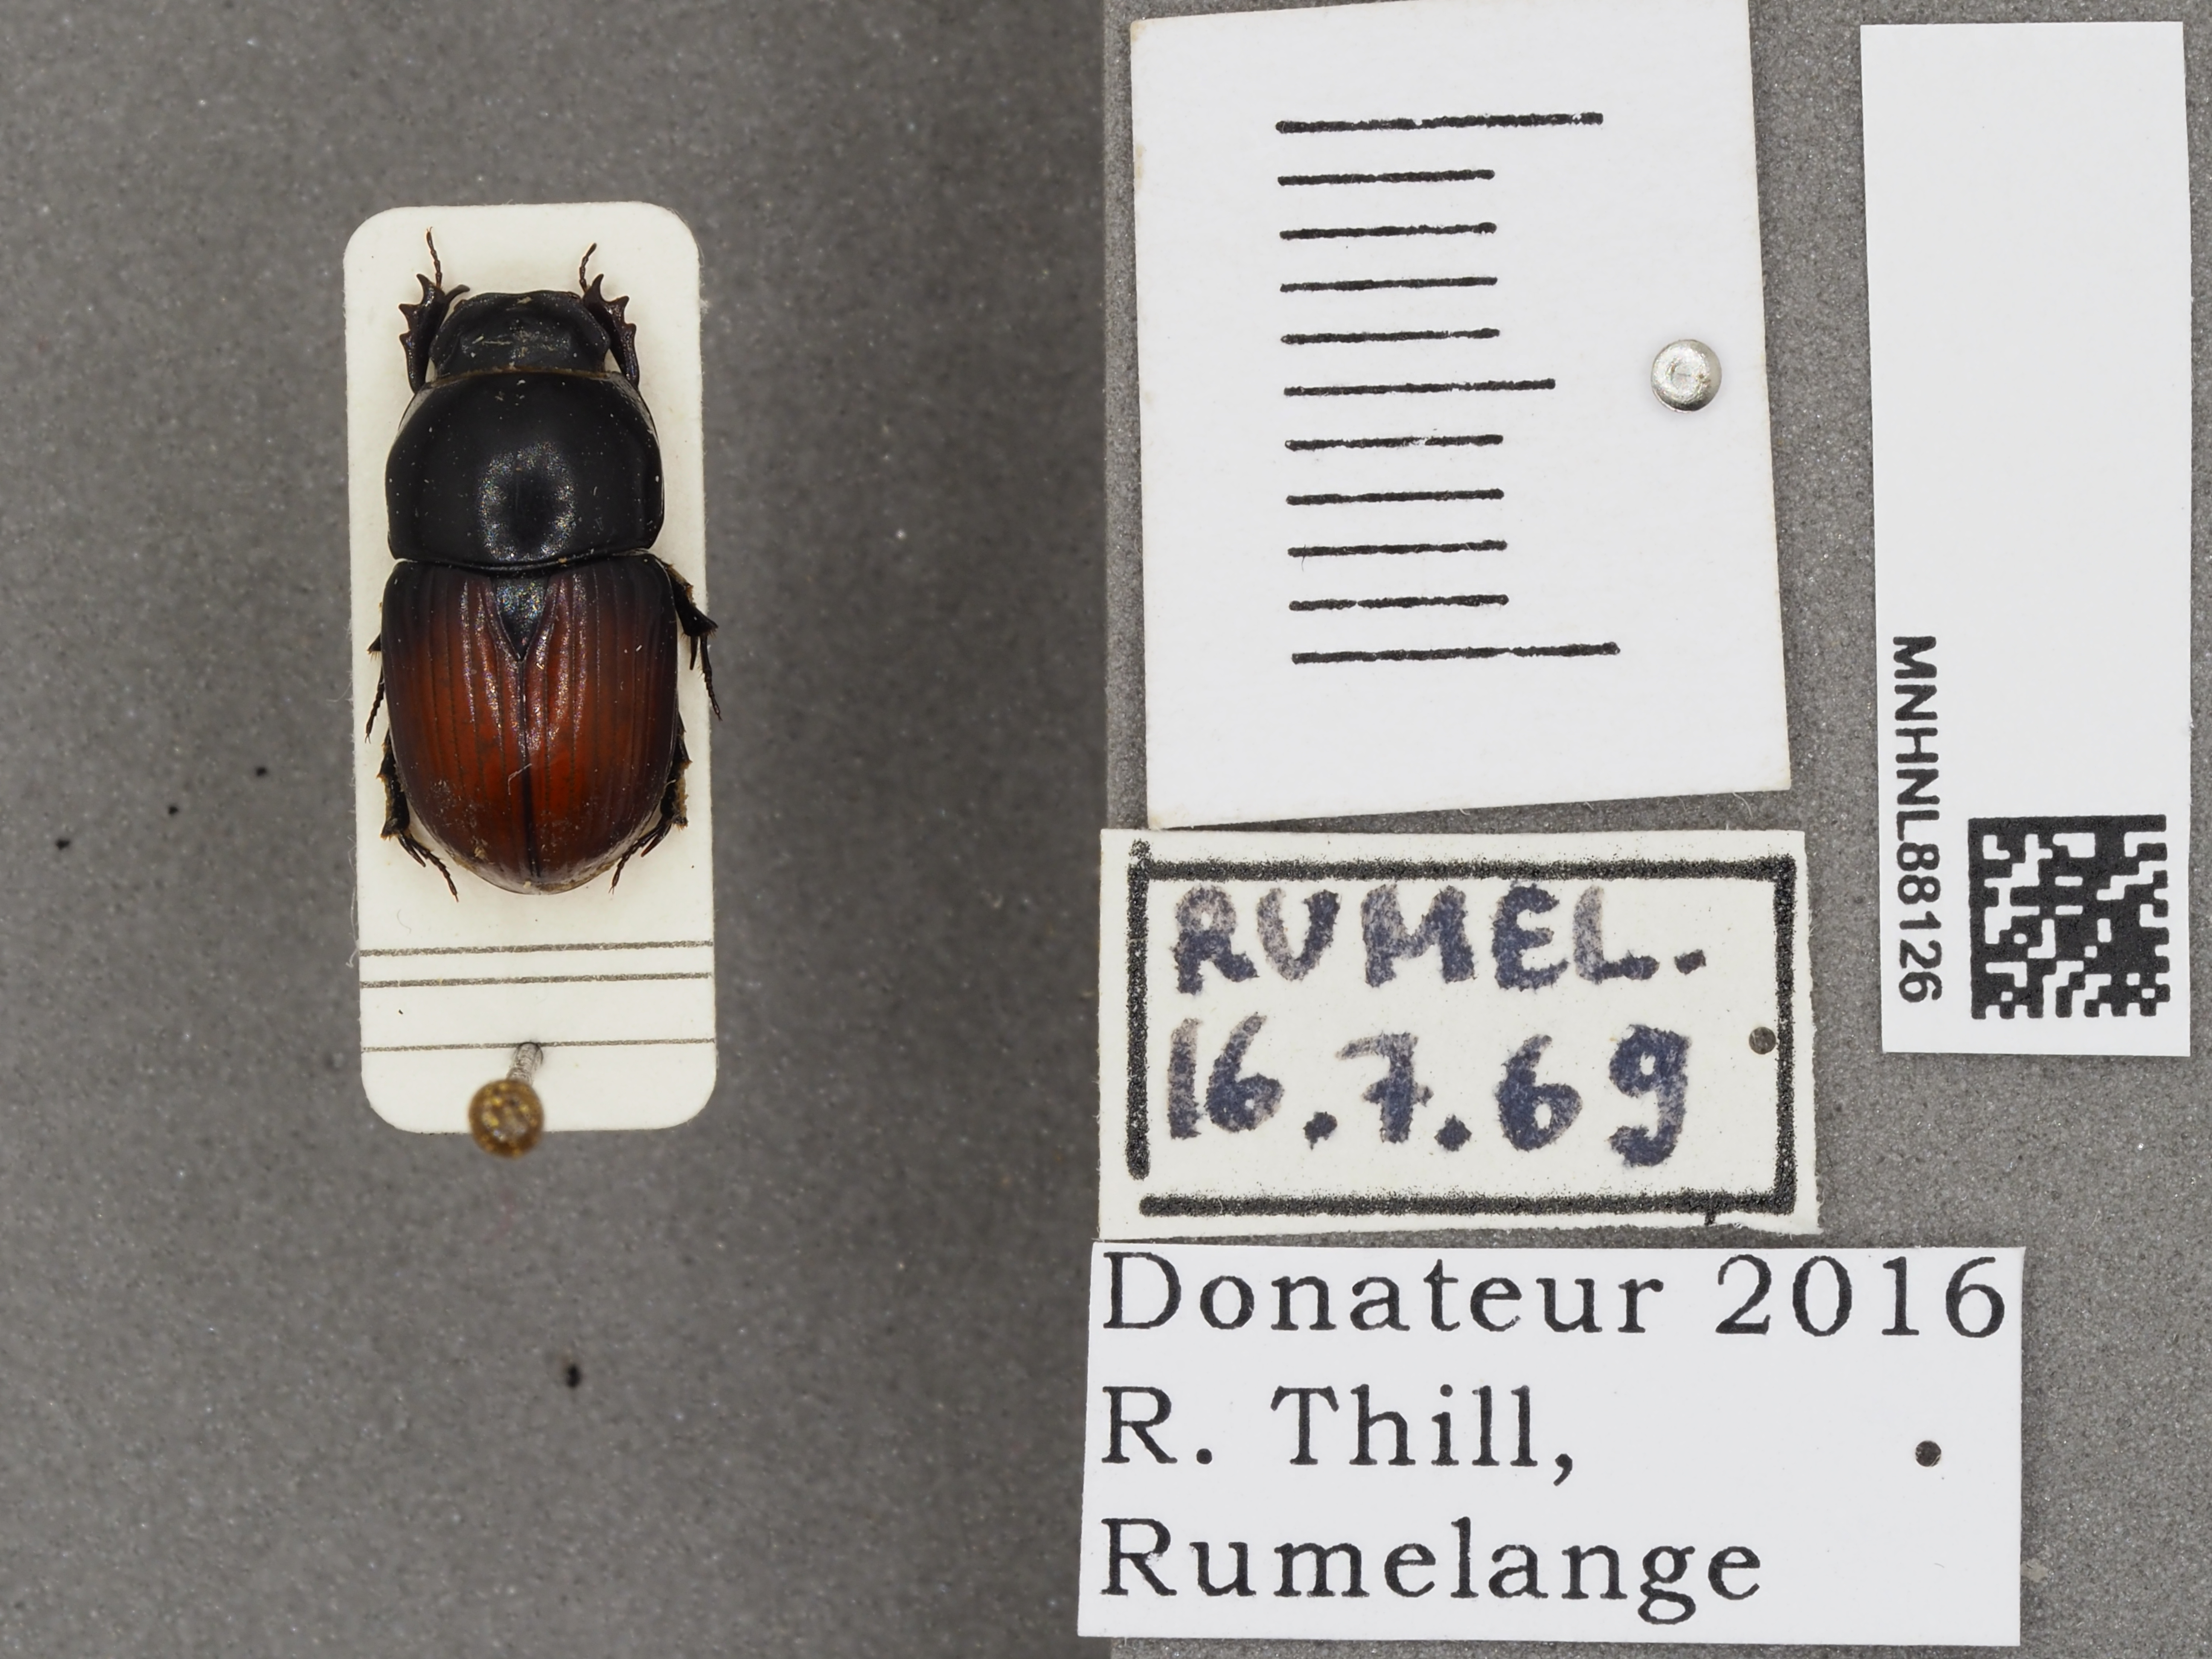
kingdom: Animalia
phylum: Arthropoda
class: Insecta
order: Coleoptera
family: Scarabaeidae
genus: Coprimorphus
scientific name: Coprimorphus scrutator
